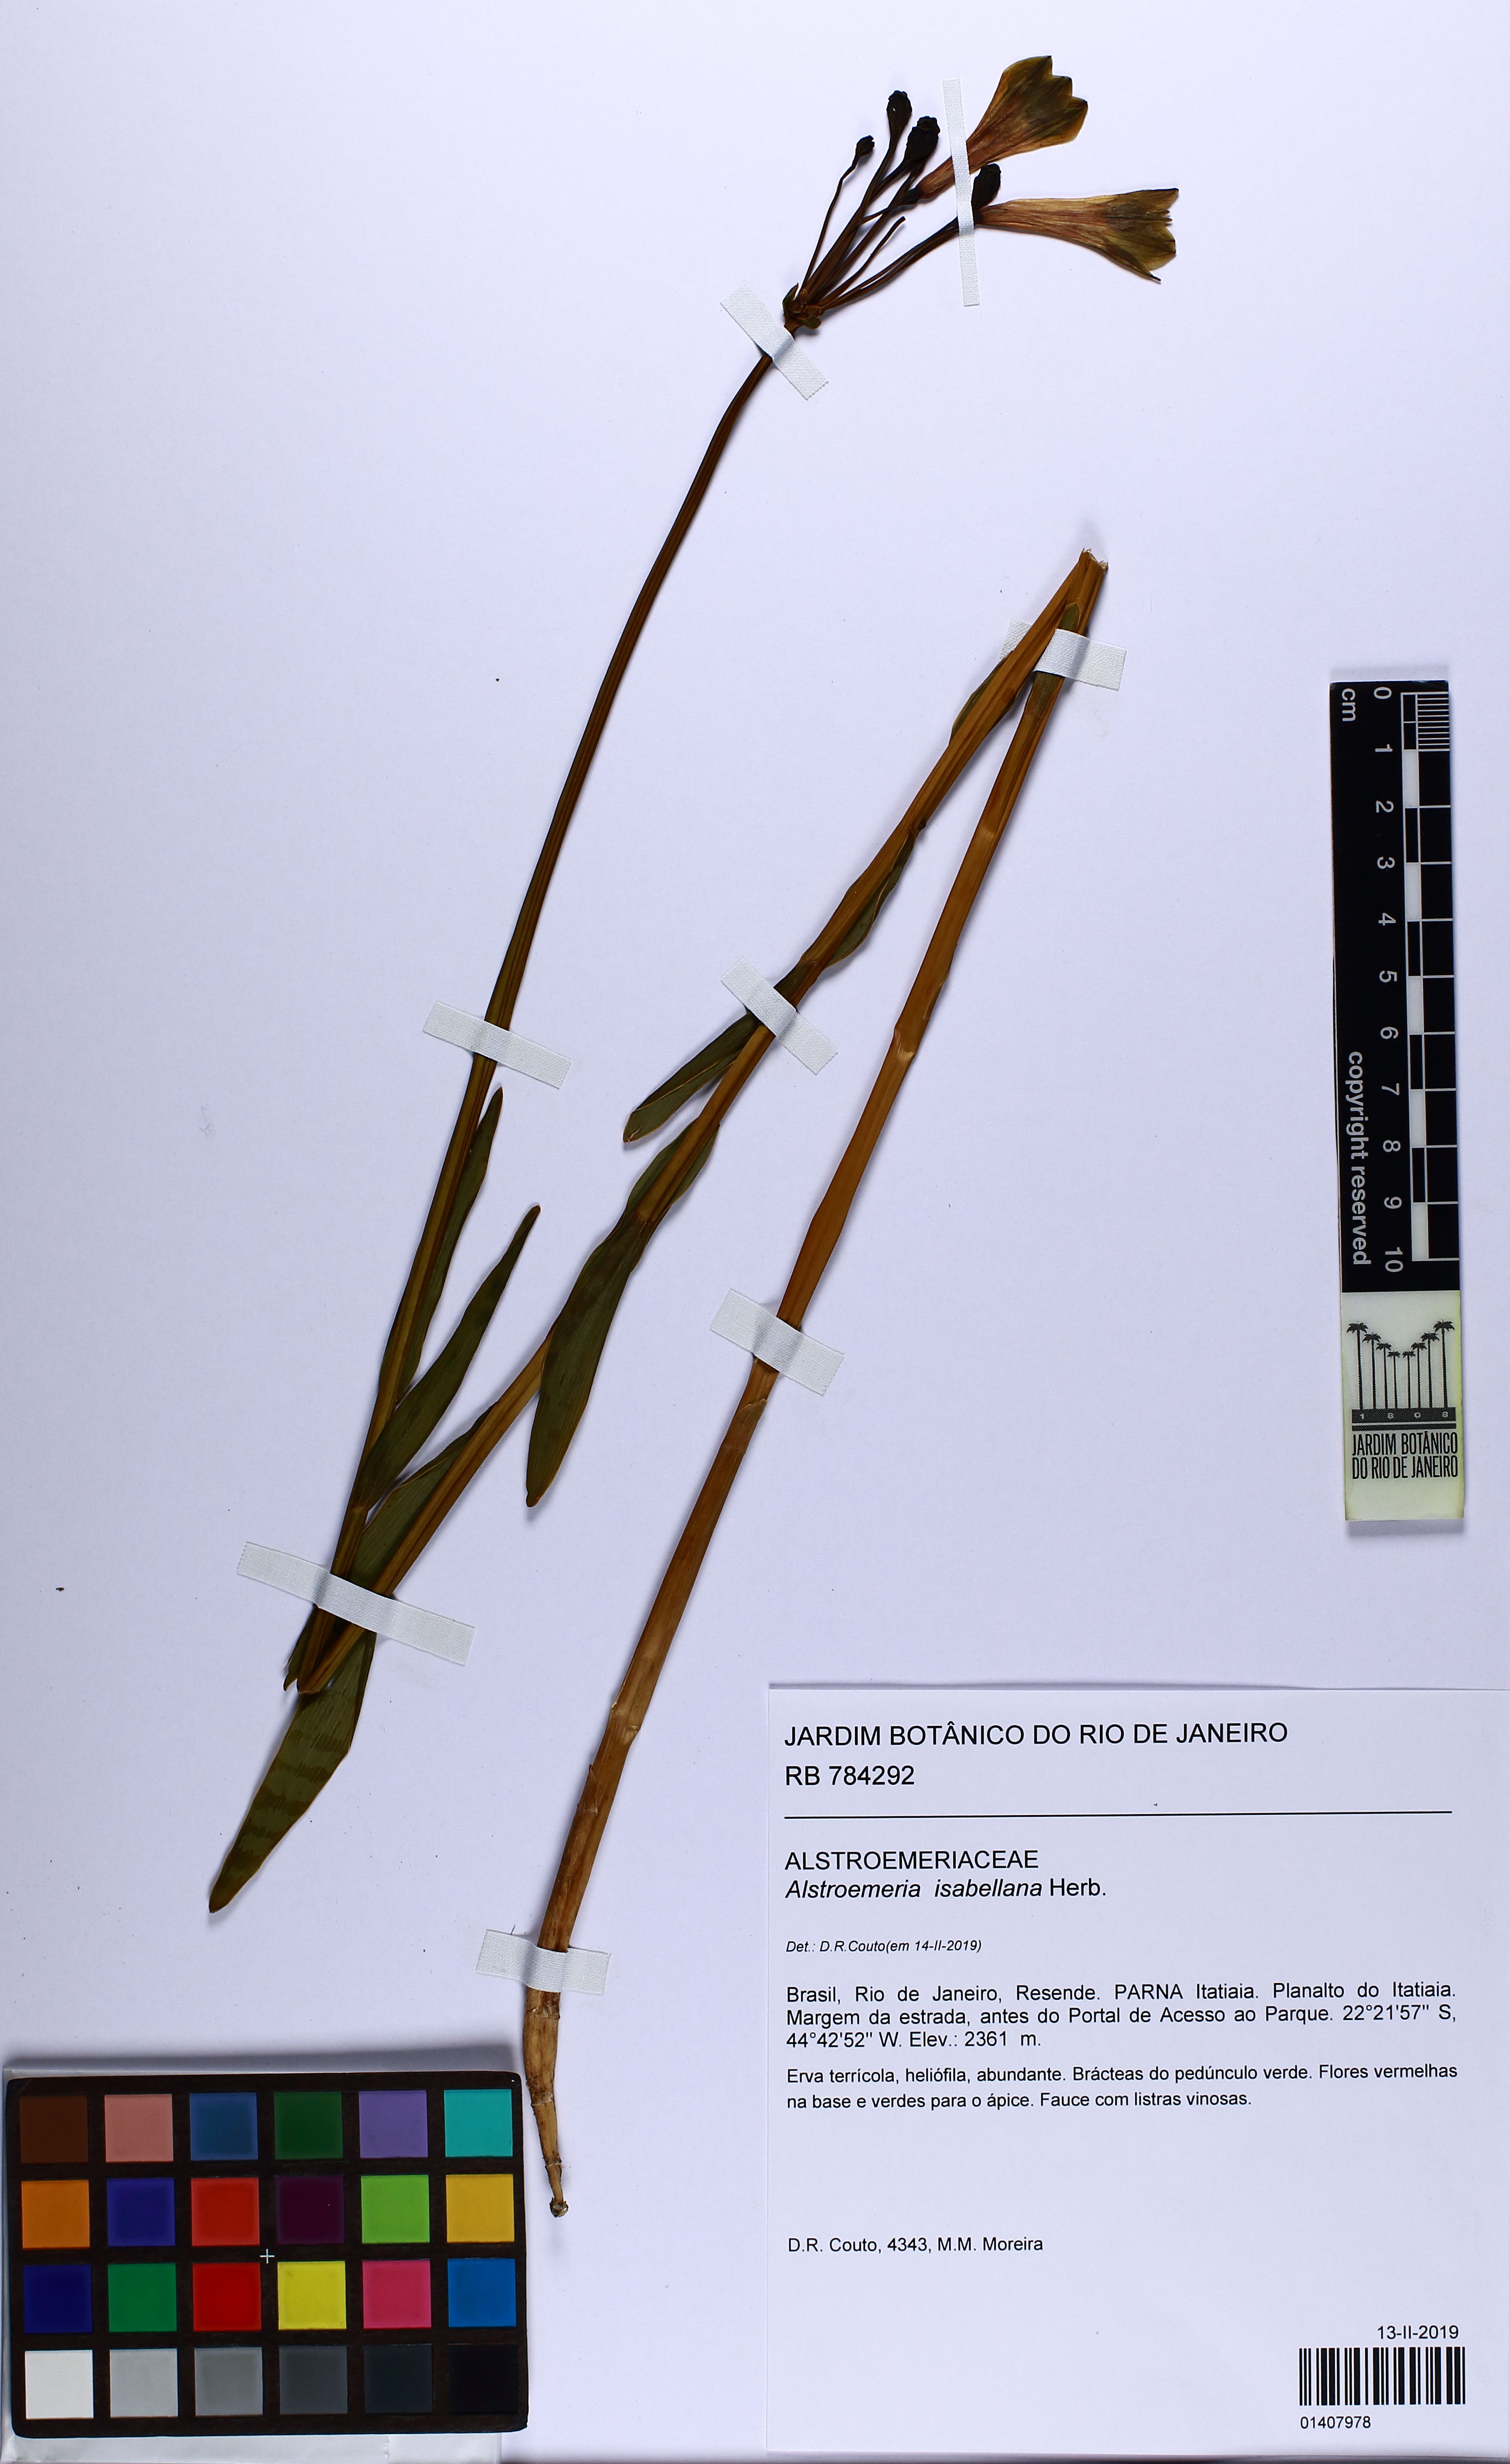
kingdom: Plantae
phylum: Tracheophyta
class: Liliopsida
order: Liliales
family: Alstroemeriaceae
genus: Alstroemeria
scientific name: Alstroemeria isabelleana
